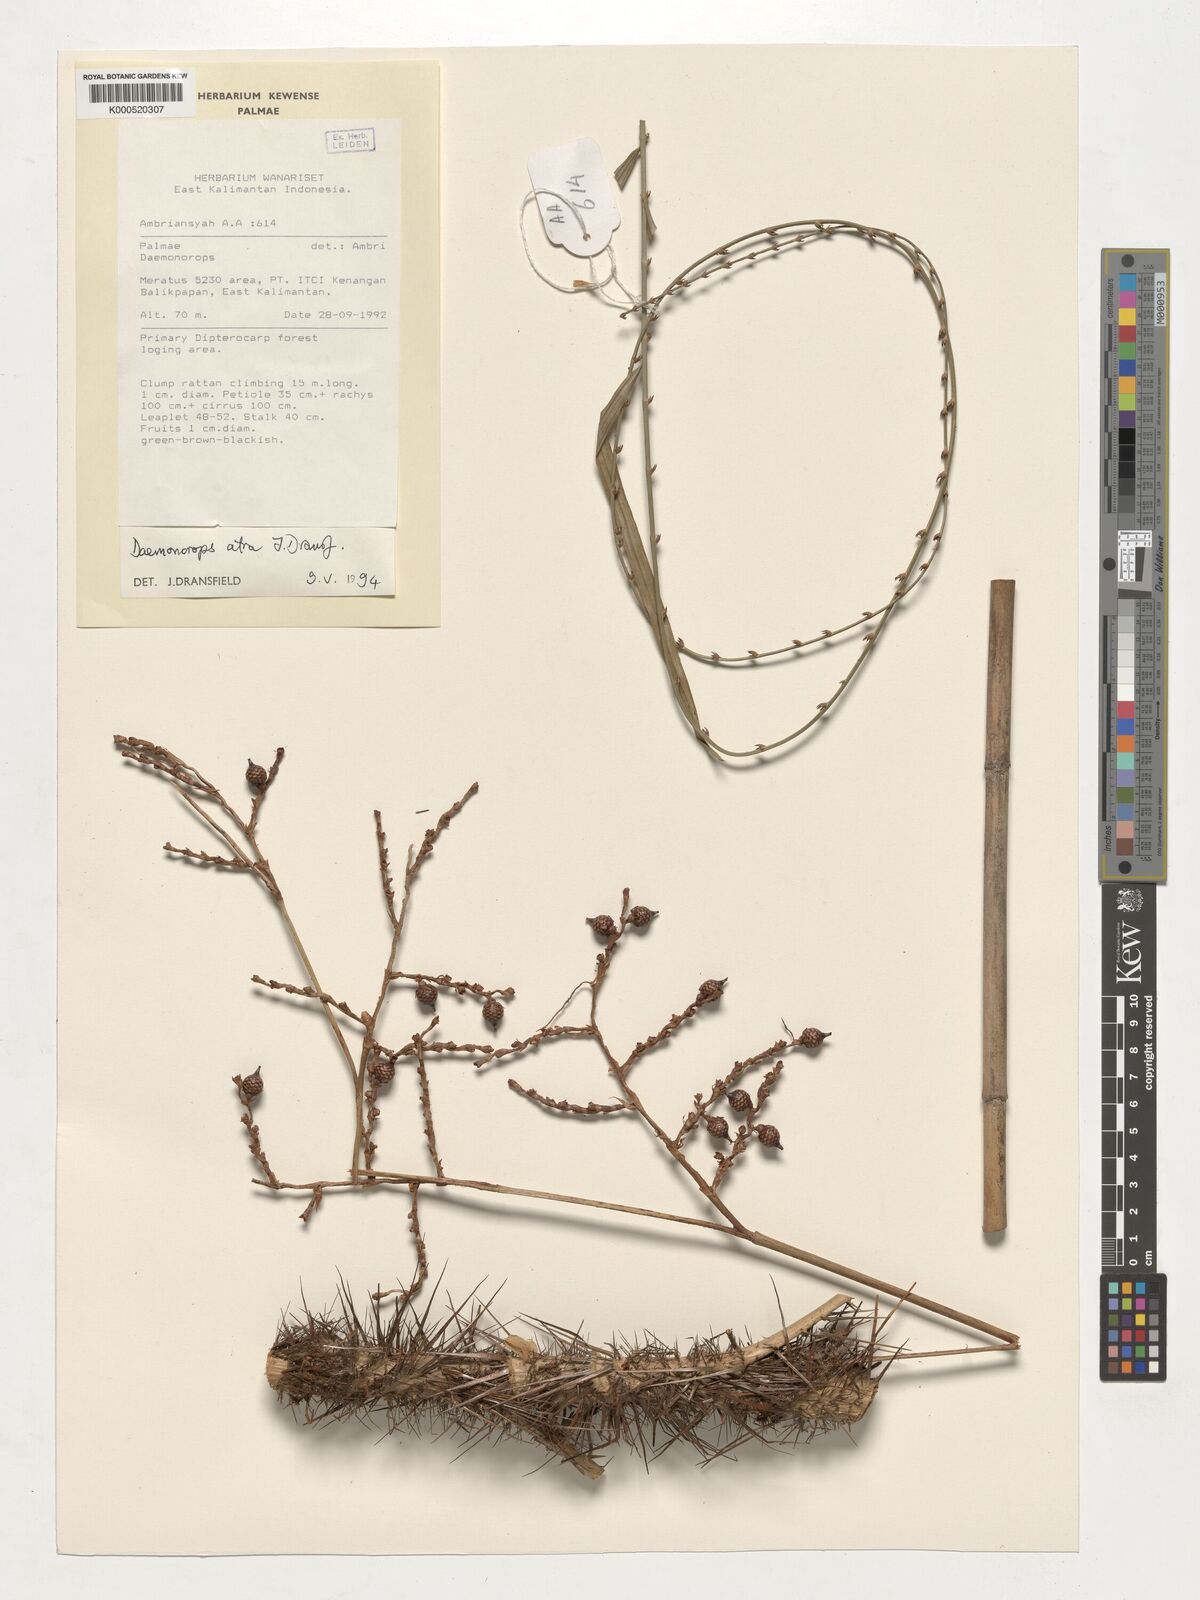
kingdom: Plantae
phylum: Tracheophyta
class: Liliopsida
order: Arecales
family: Arecaceae
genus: Calamus
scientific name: Calamus ater
